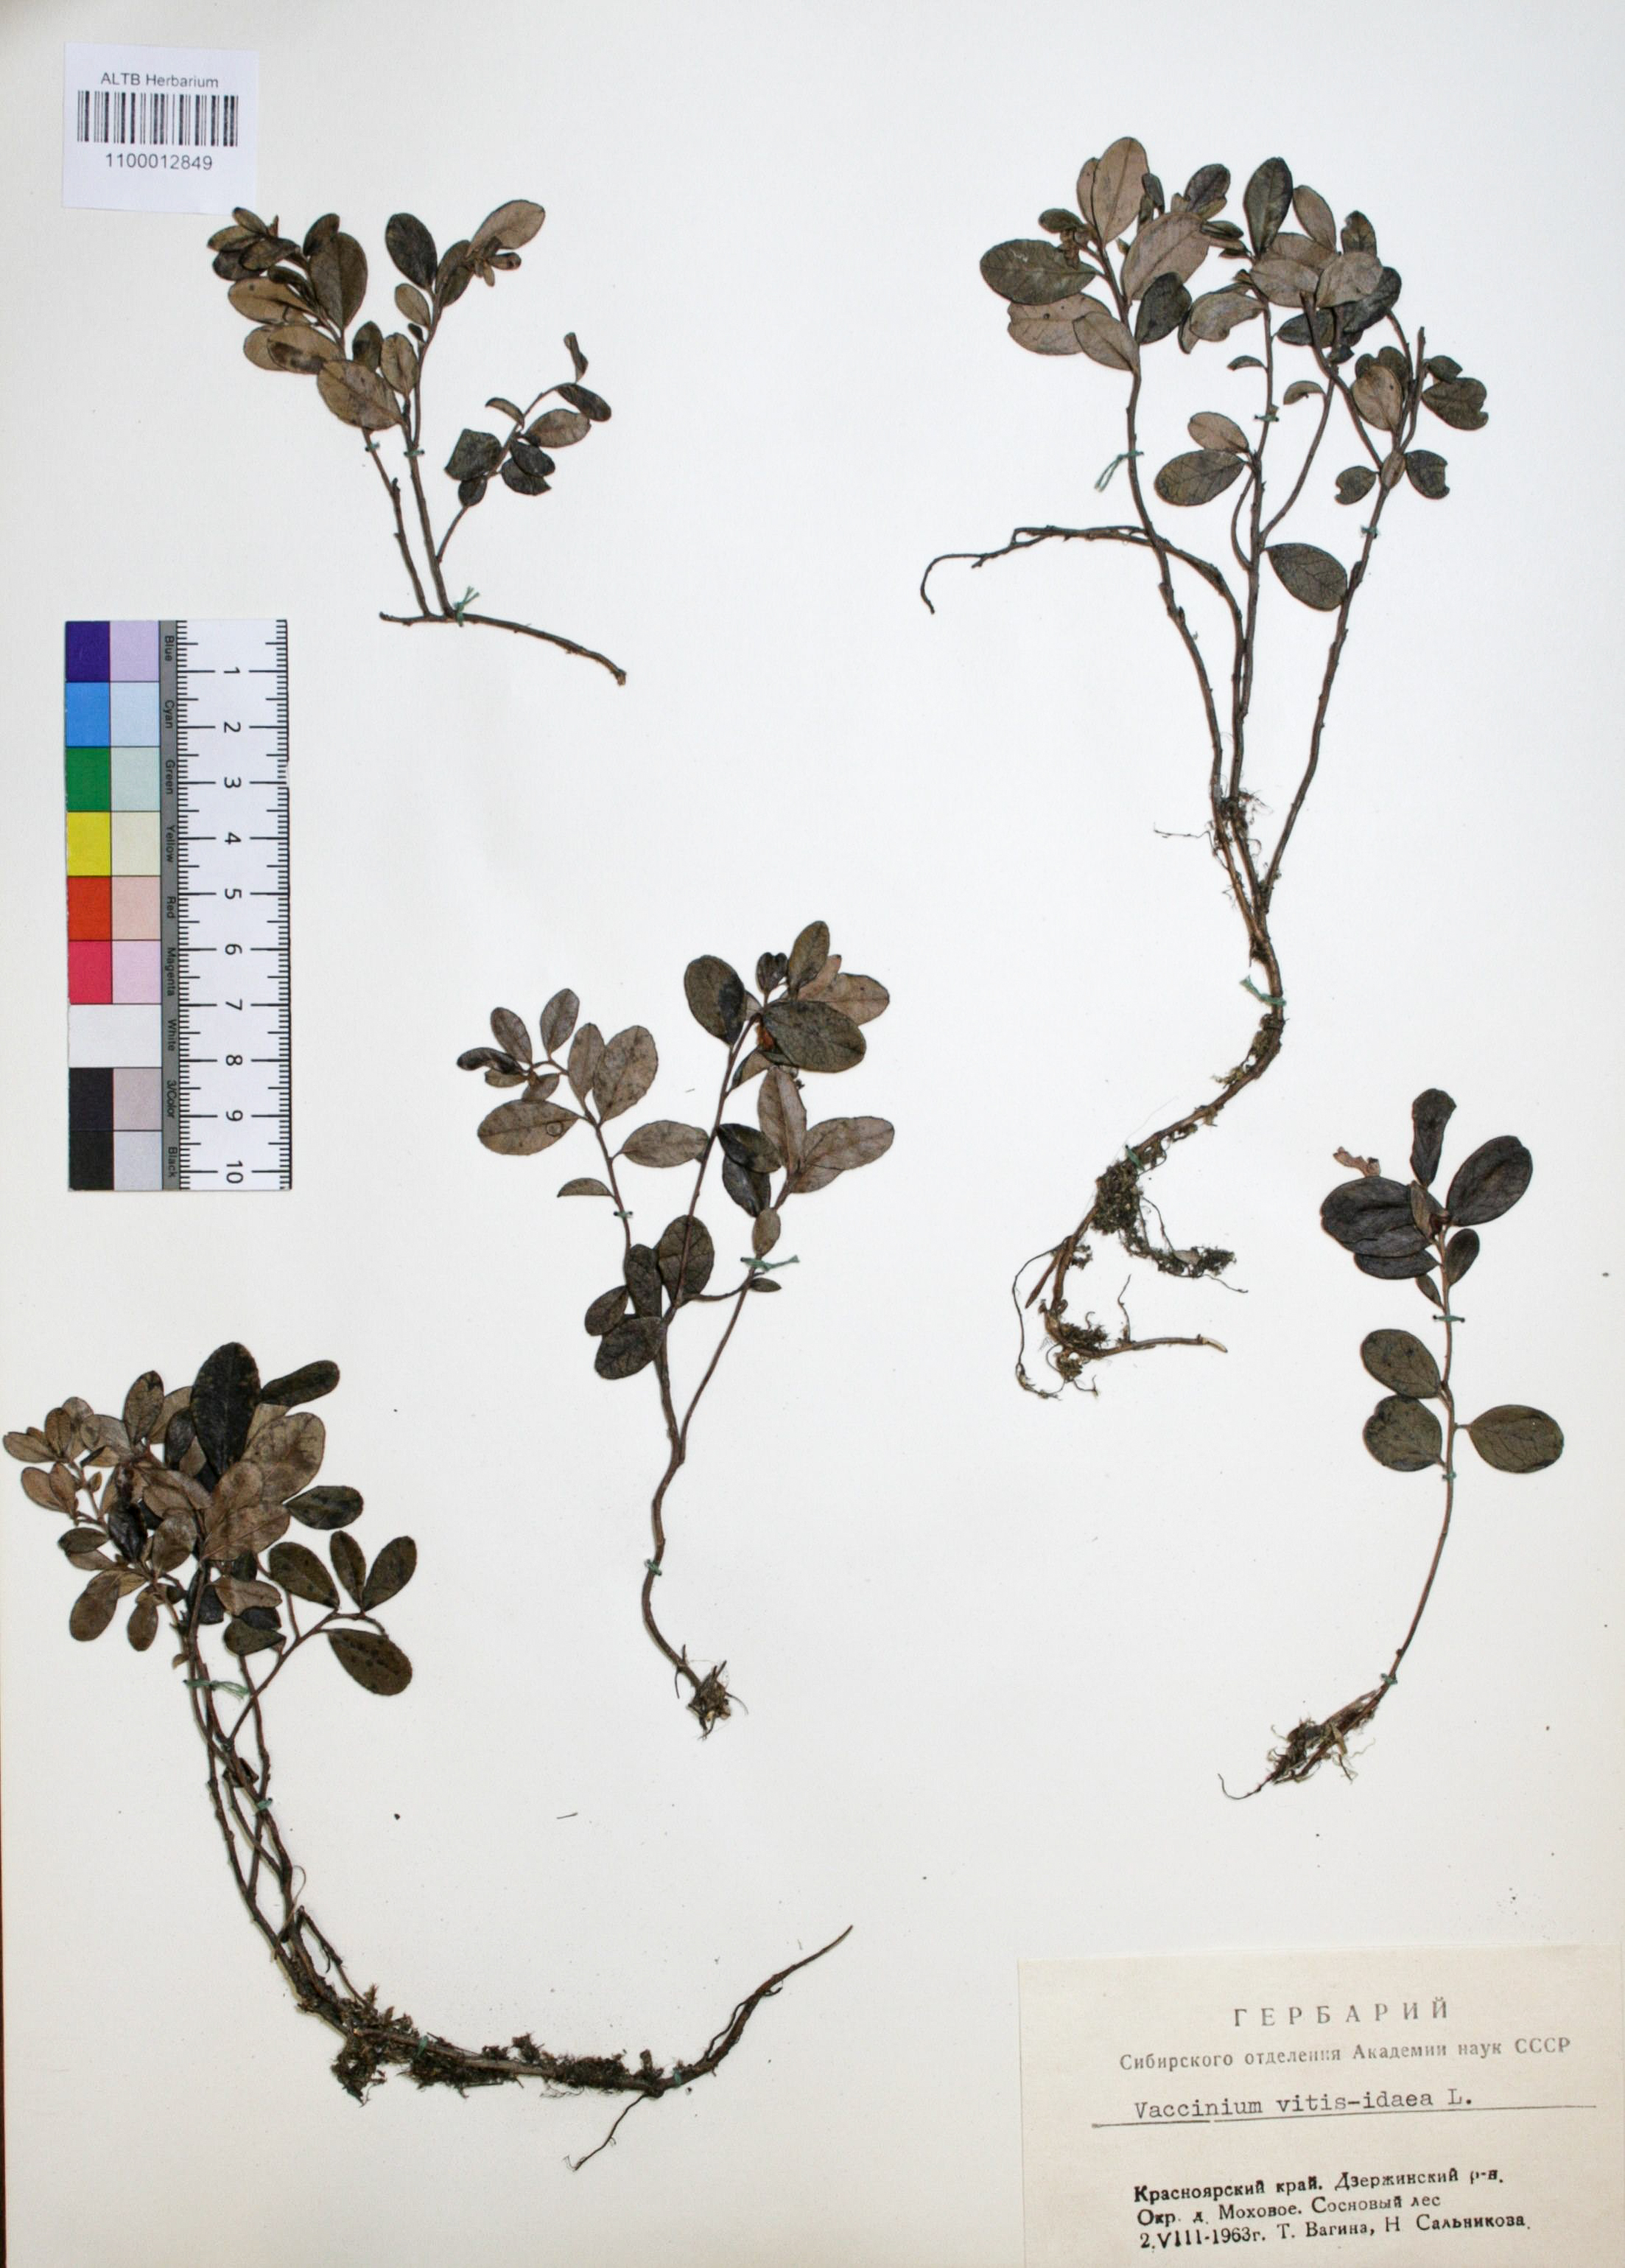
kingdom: Plantae
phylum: Tracheophyta
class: Magnoliopsida
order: Ericales
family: Ericaceae
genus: Vaccinium
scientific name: Vaccinium vitis-idaea
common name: Cowberry
